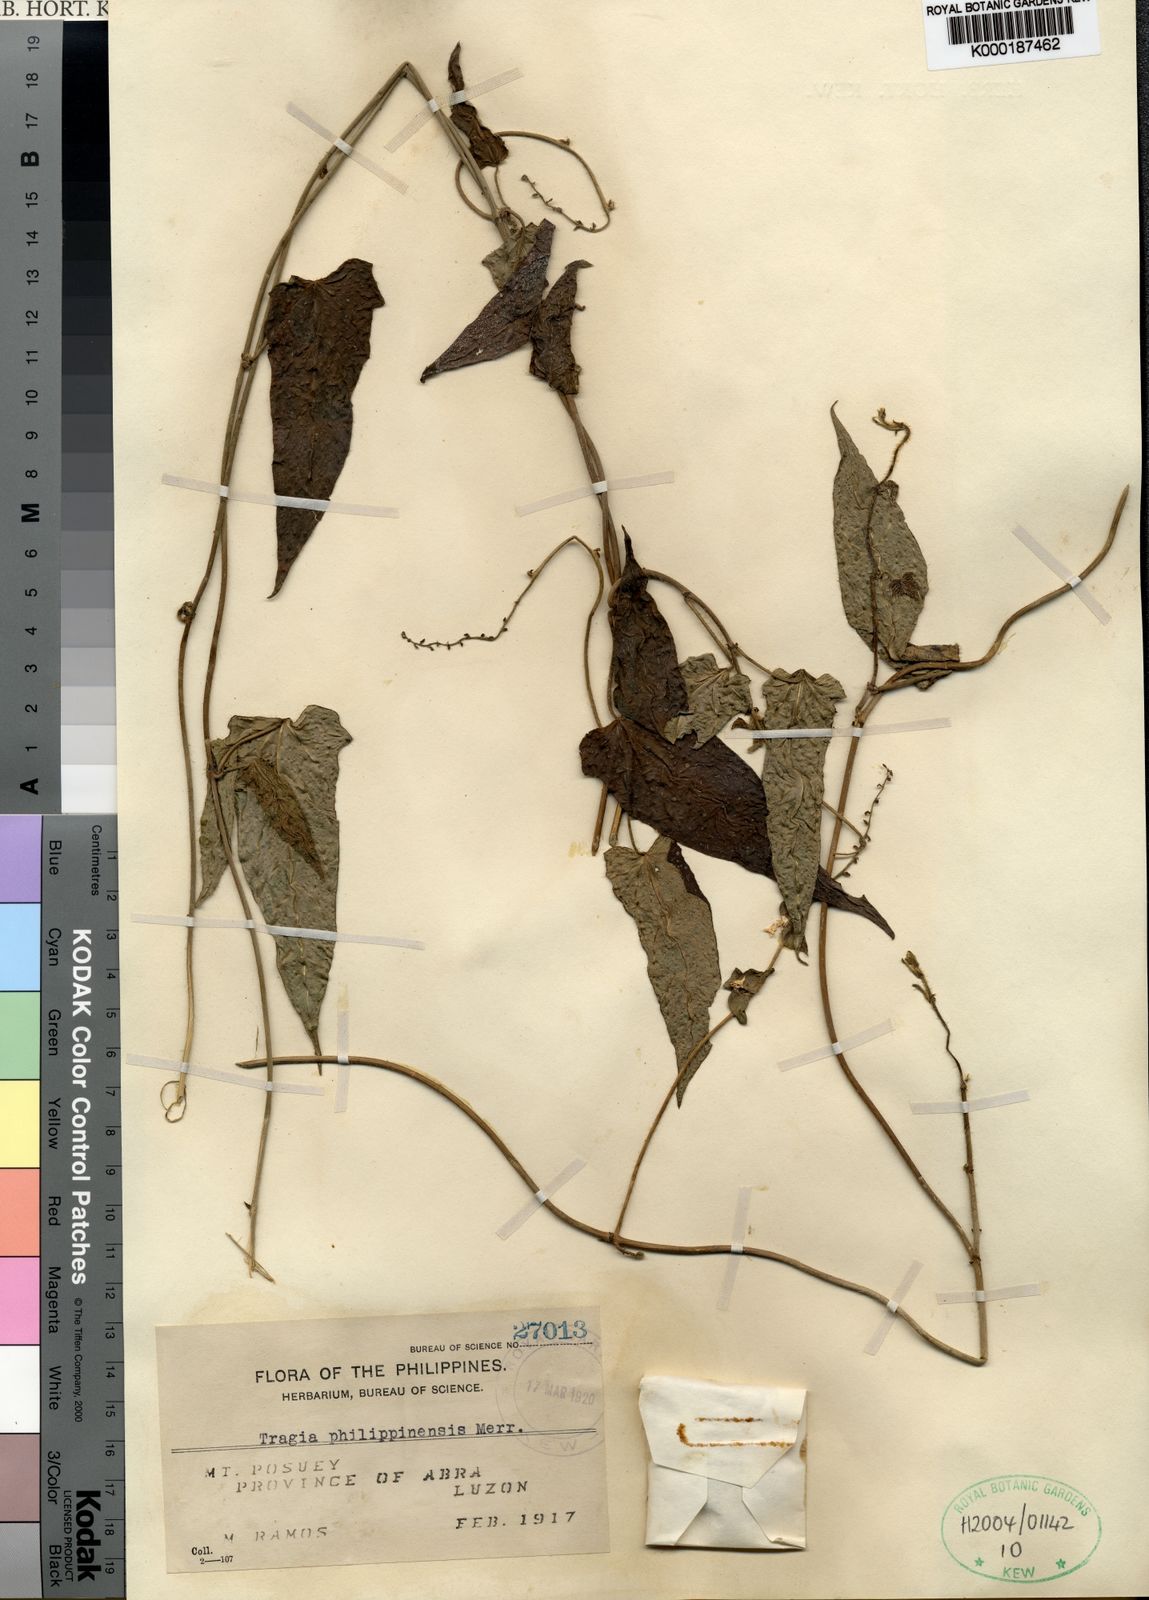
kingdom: Plantae
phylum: Tracheophyta
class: Magnoliopsida
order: Malpighiales
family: Euphorbiaceae
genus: Cnesmone
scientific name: Cnesmone philippinensis
